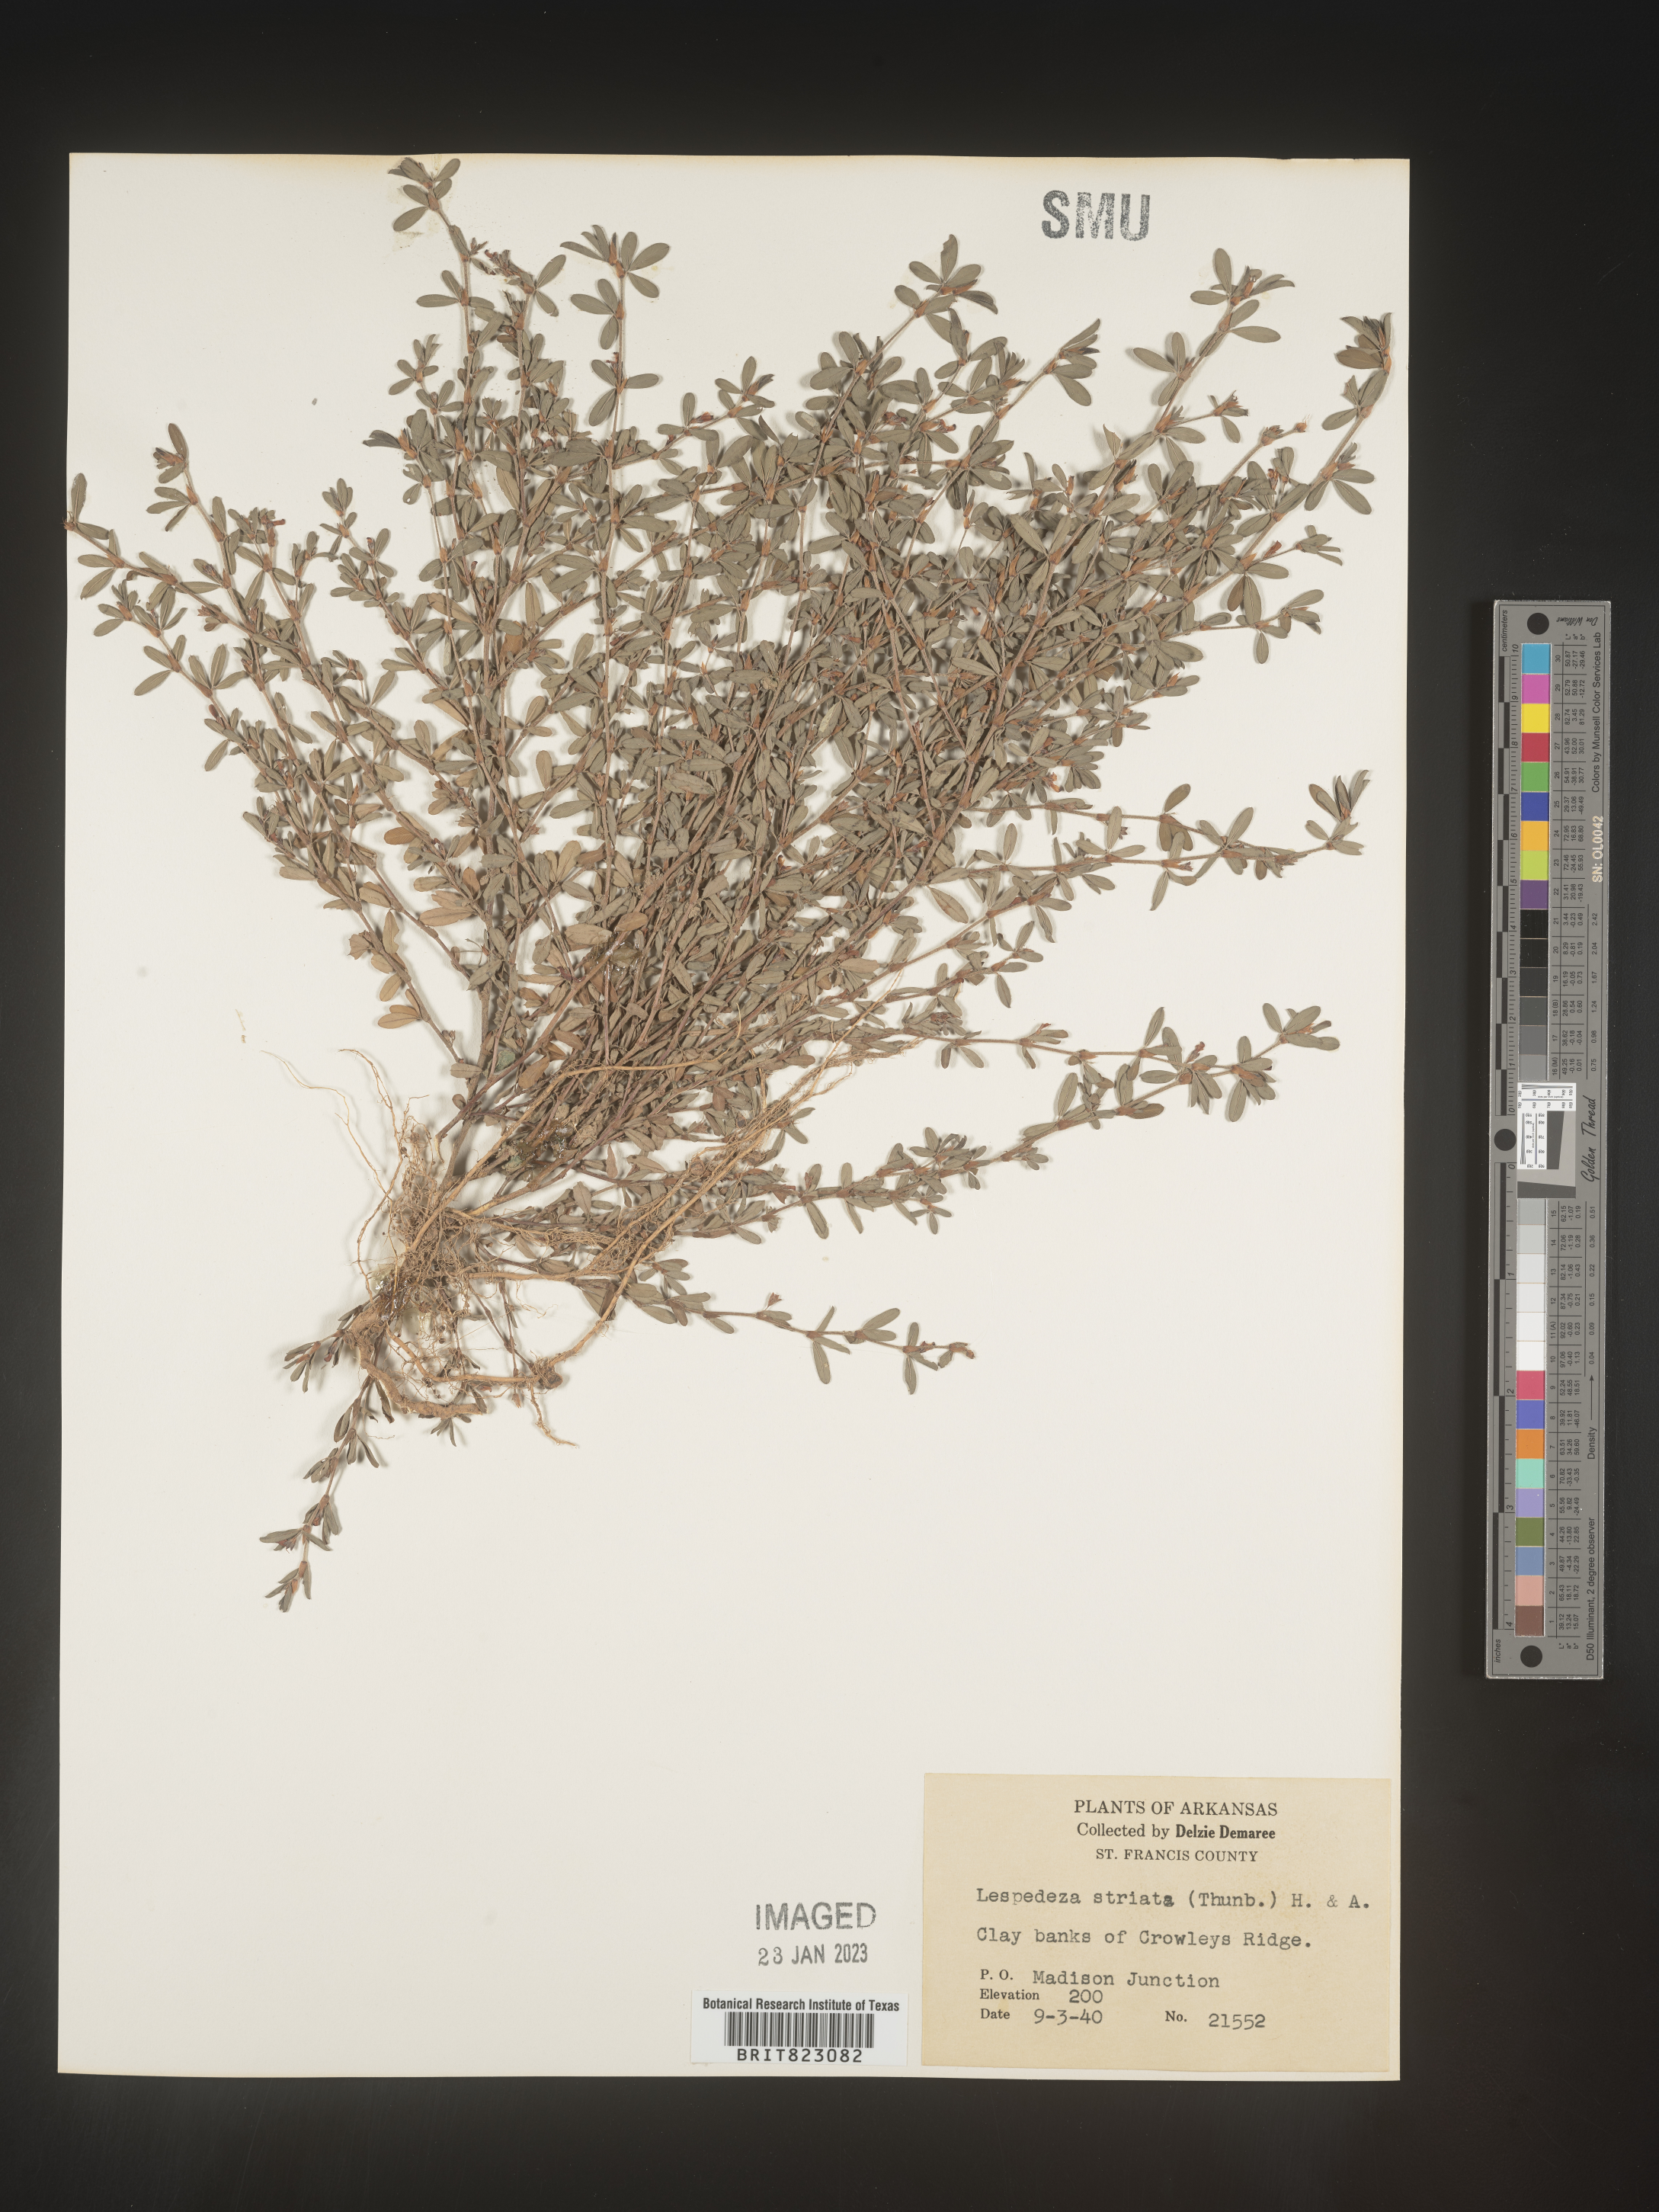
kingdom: Plantae
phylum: Tracheophyta
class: Magnoliopsida
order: Fabales
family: Fabaceae
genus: Kummerowia
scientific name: Kummerowia striata
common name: Japanese clover
